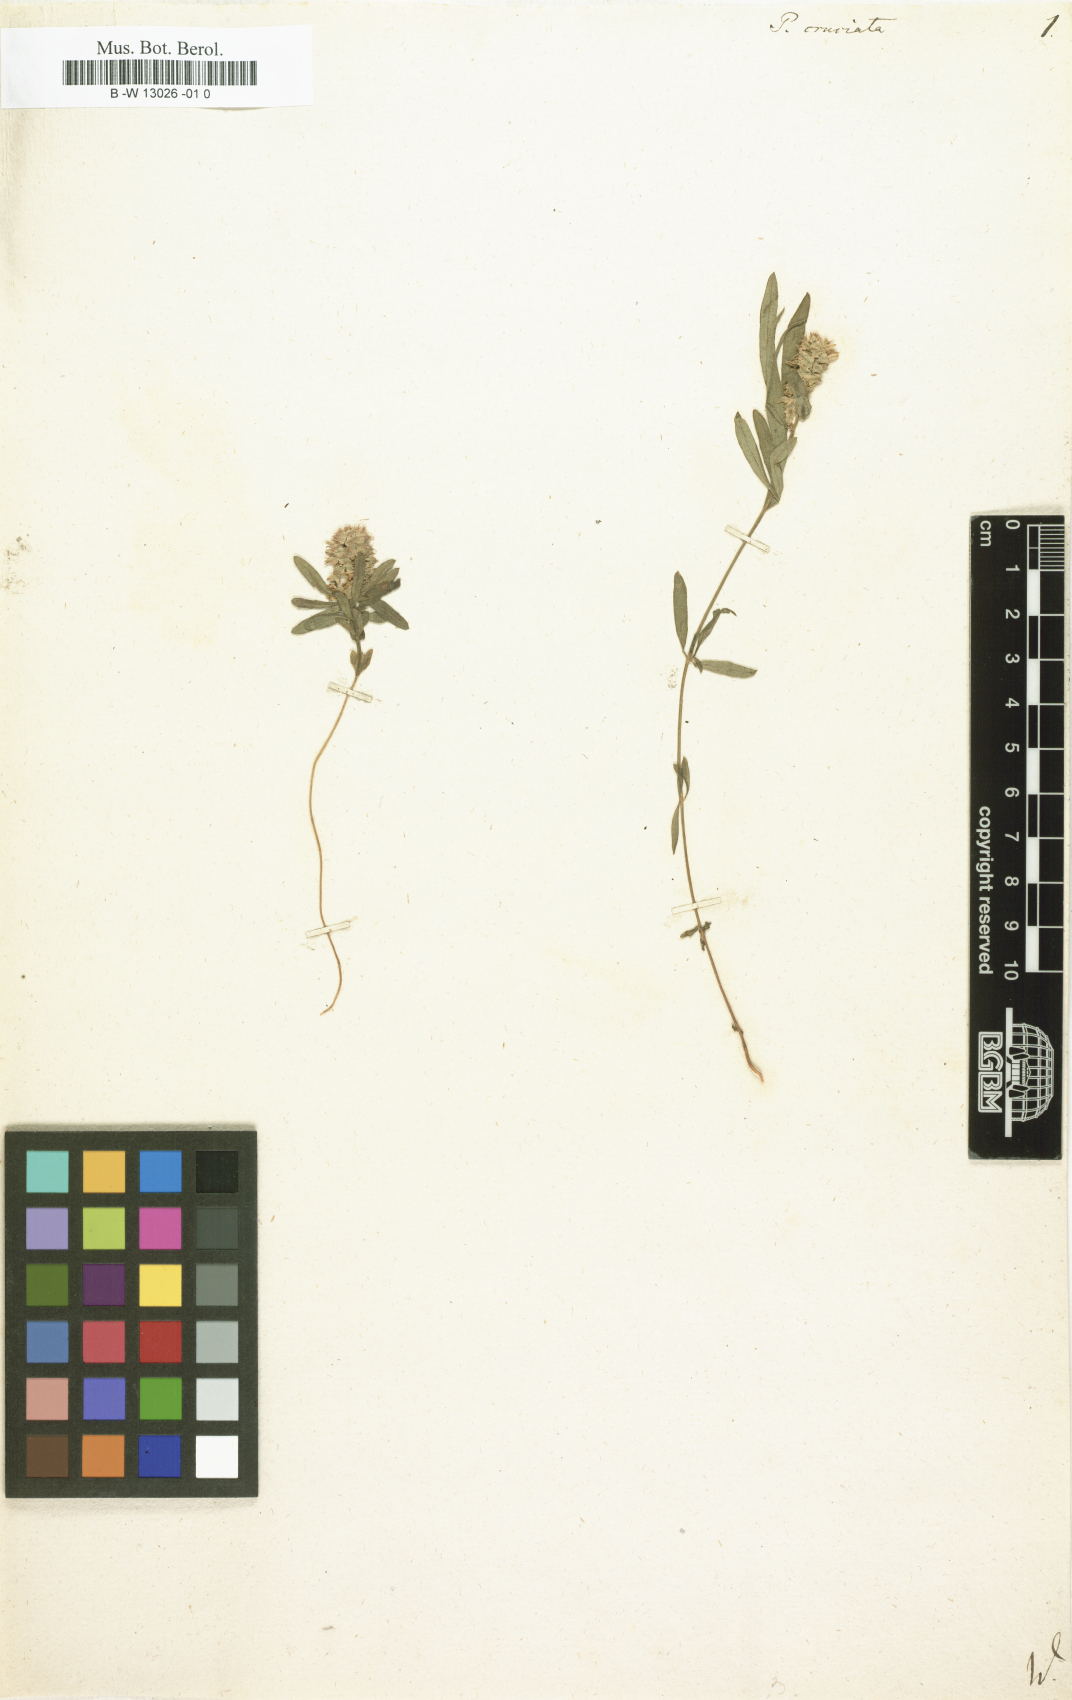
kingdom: Plantae
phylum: Tracheophyta
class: Magnoliopsida
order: Fabales
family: Polygalaceae
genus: Polygala
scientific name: Polygala cruciata
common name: Drumheads
